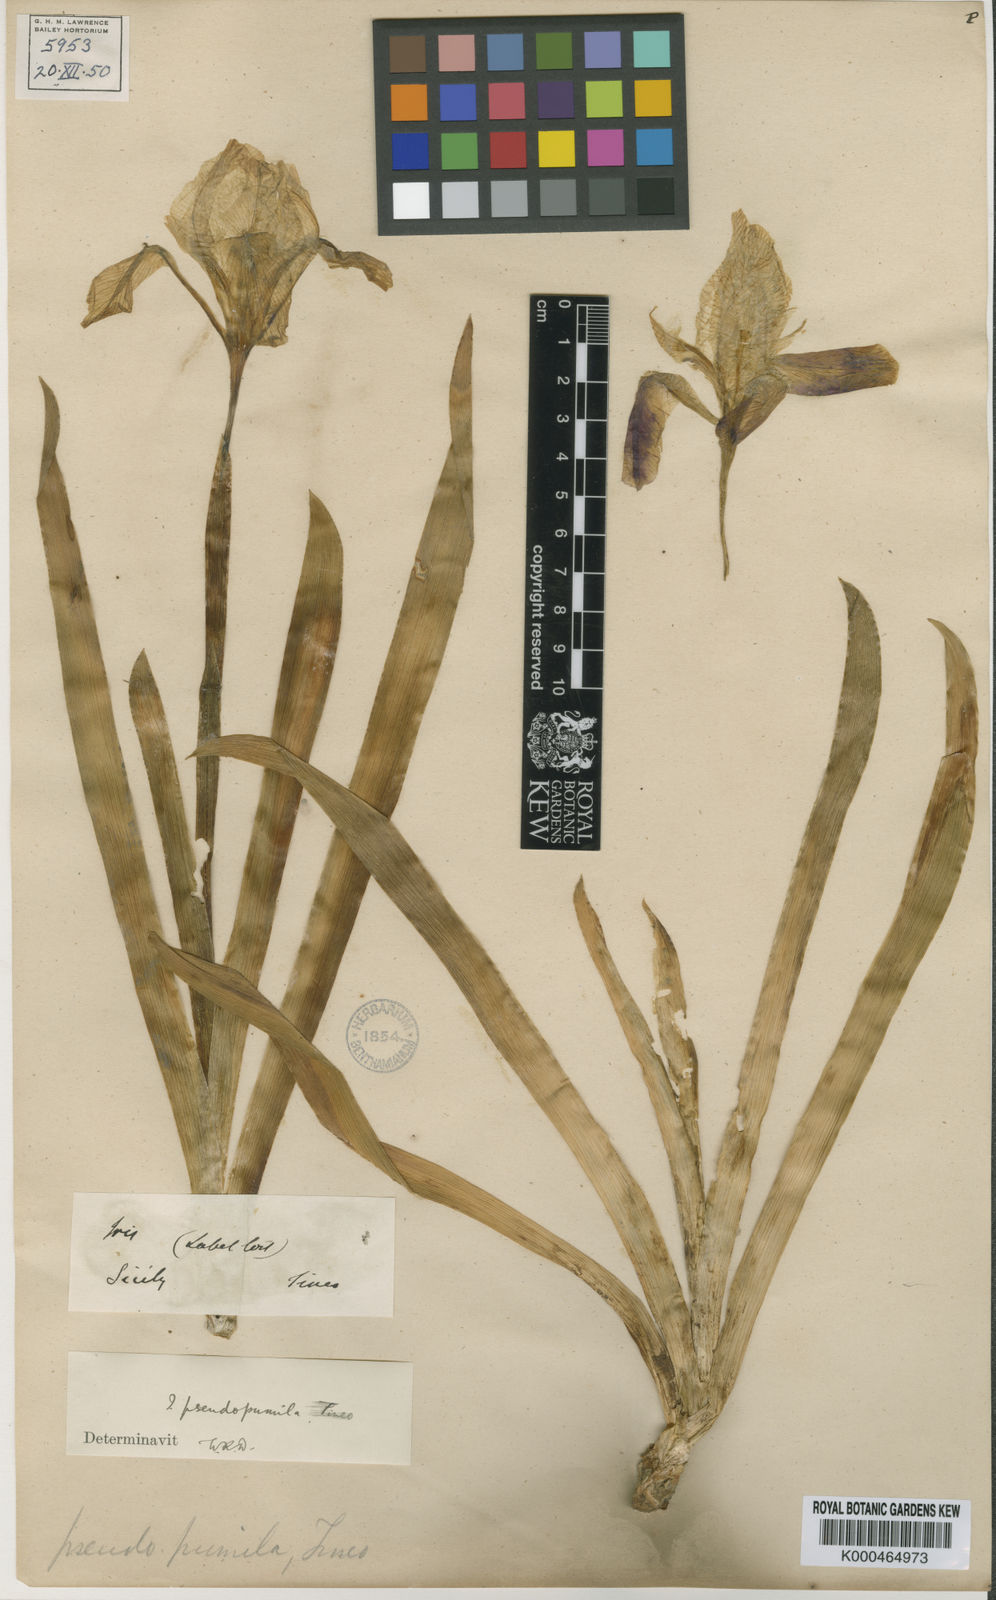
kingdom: Plantae
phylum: Tracheophyta
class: Liliopsida
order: Asparagales
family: Iridaceae
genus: Iris
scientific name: Iris pseudopumila
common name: Southern dwarf iris
